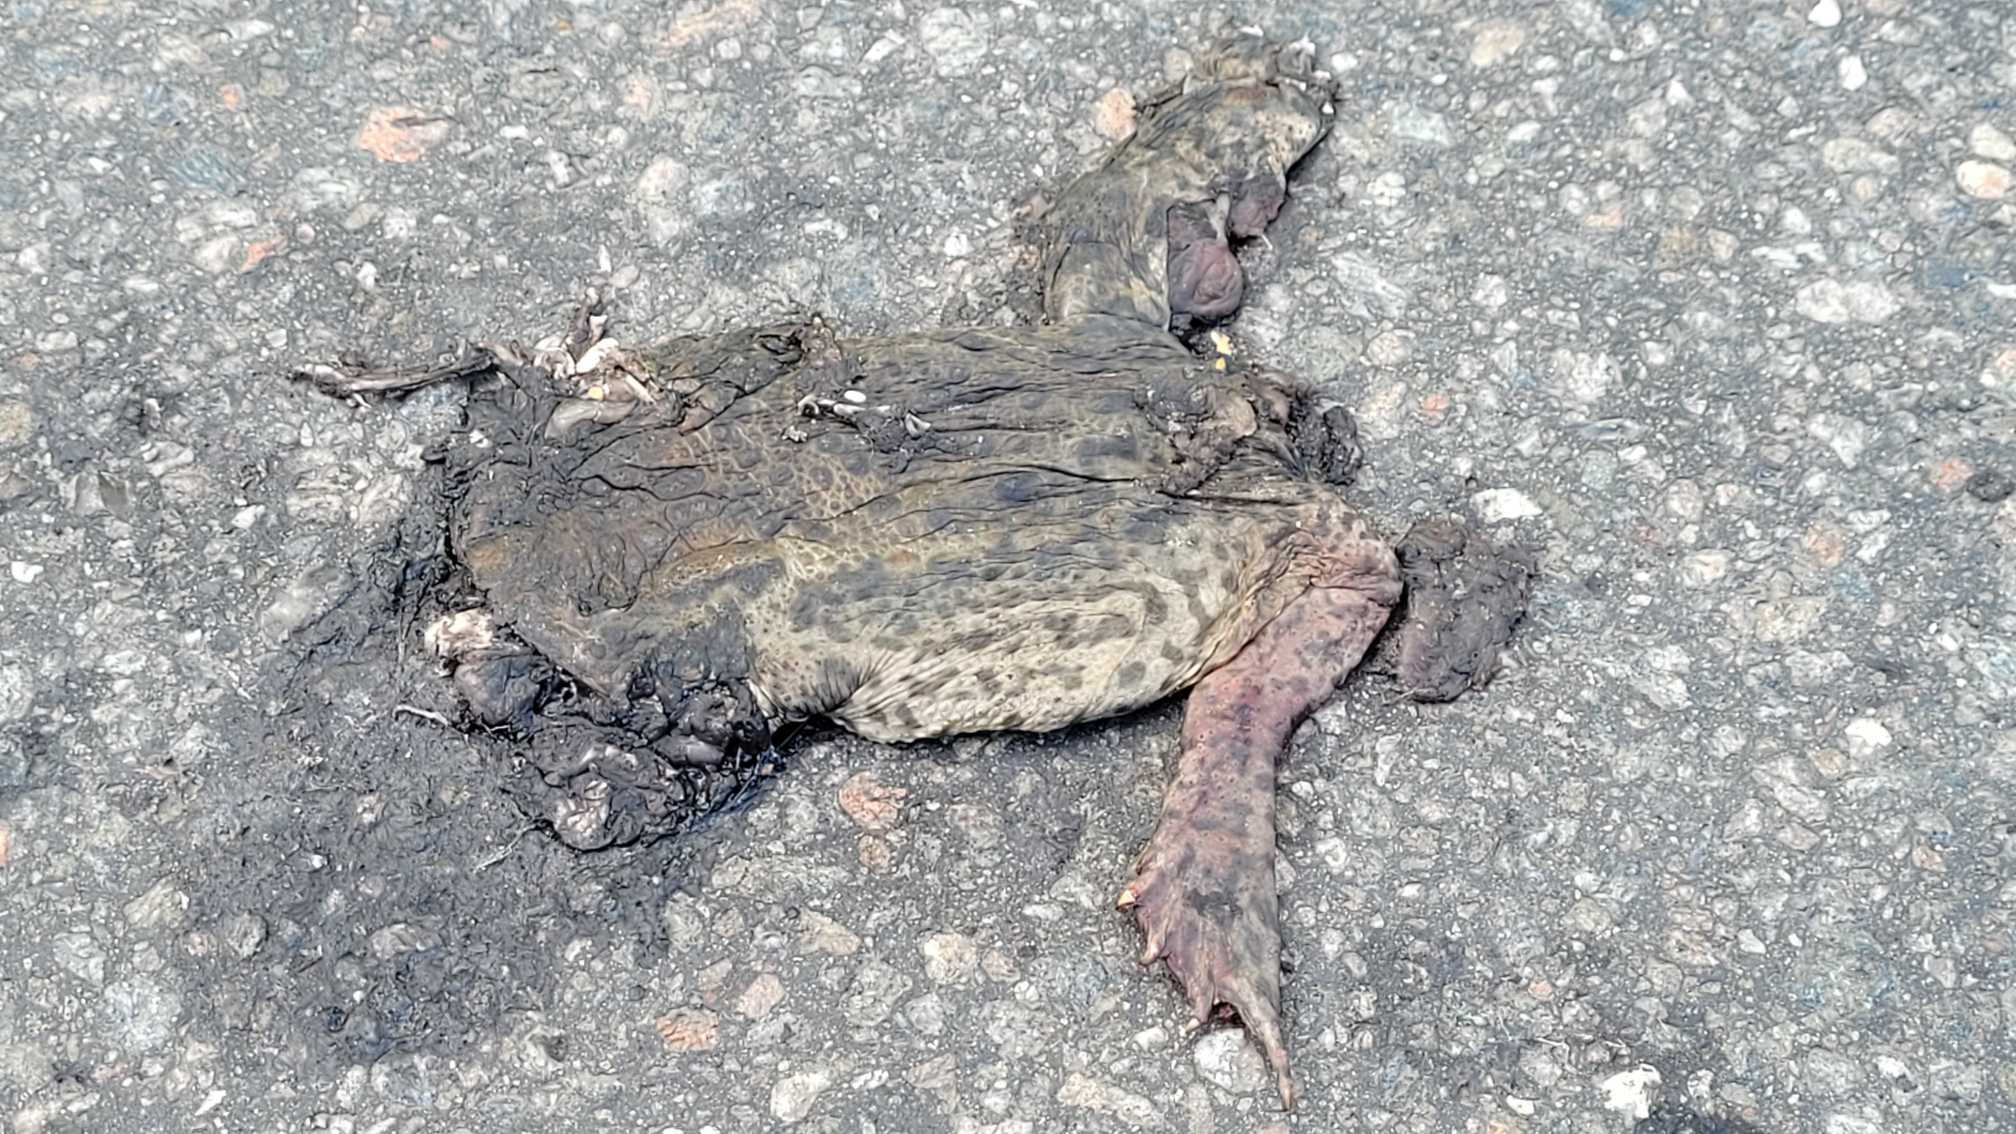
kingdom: Animalia
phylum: Chordata
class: Amphibia
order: Anura
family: Bufonidae
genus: Bufo
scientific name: Bufo bufo
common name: Skrubtudse
